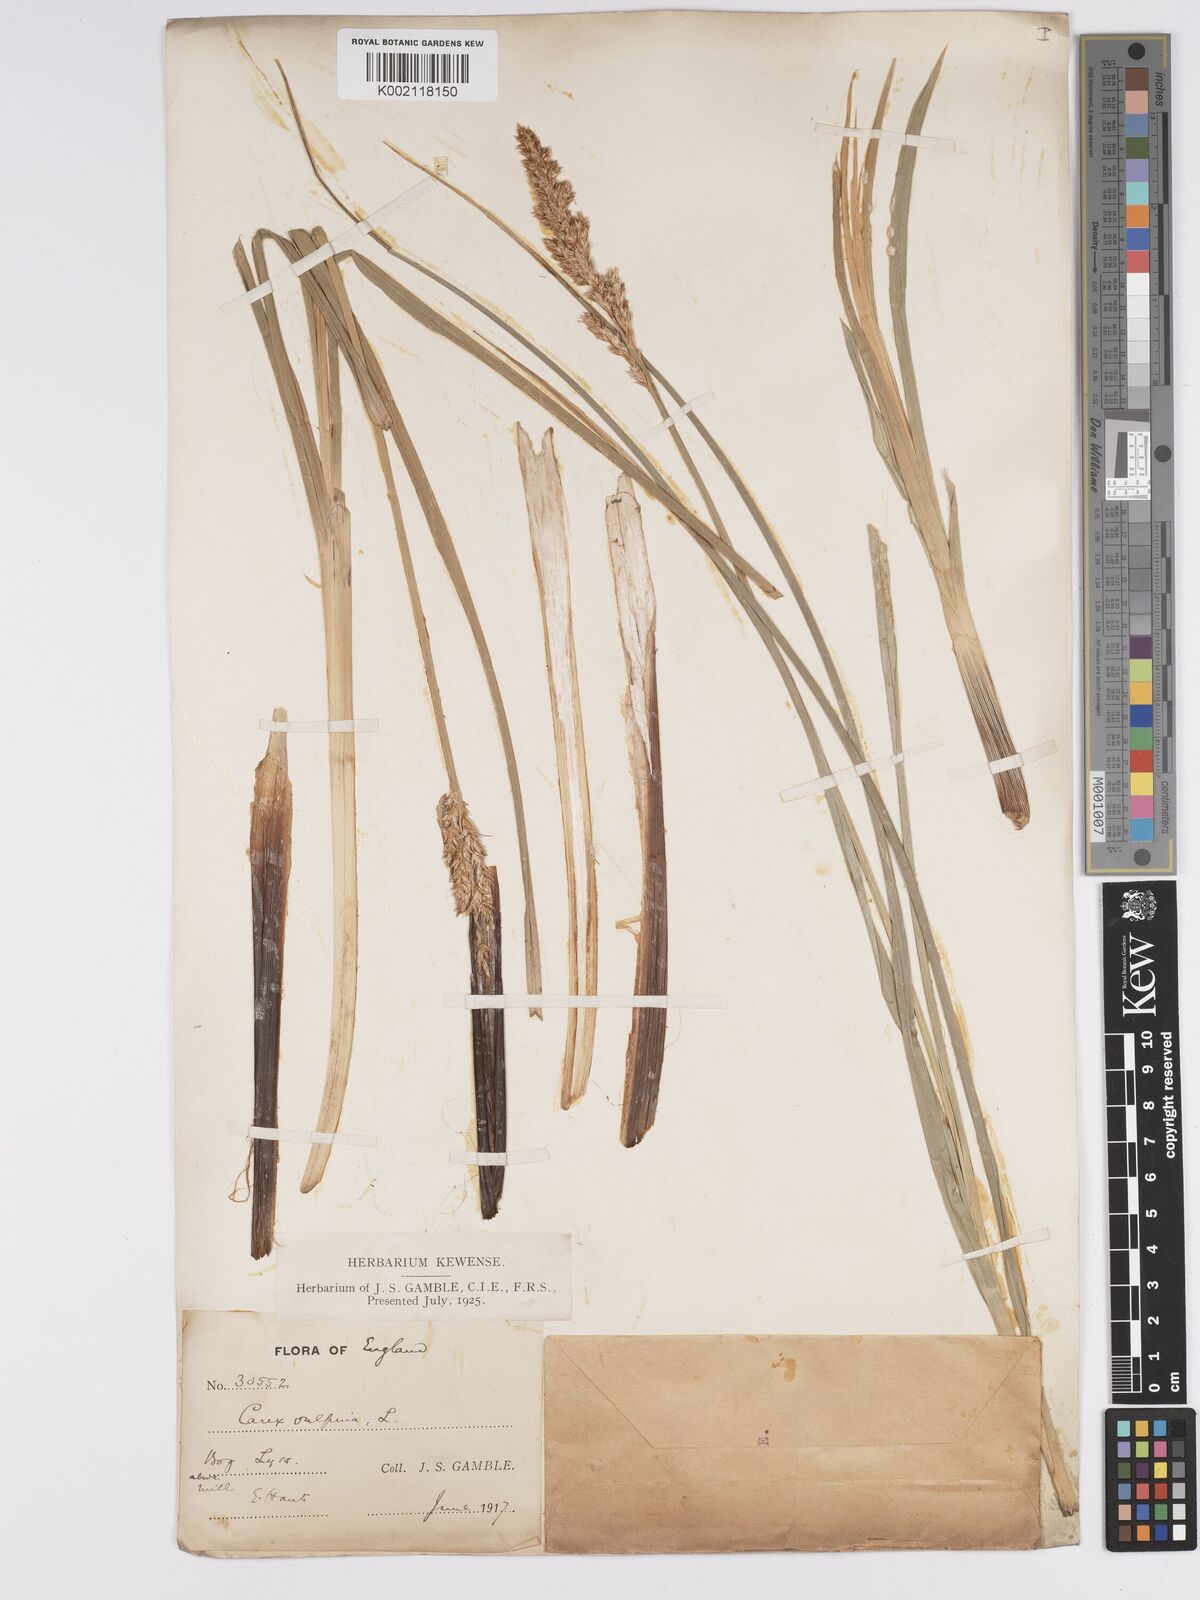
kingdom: Plantae
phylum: Tracheophyta
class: Liliopsida
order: Poales
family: Cyperaceae
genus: Carex
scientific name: Carex paniculata
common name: Greater tussock-sedge
